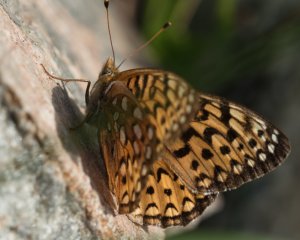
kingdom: Animalia
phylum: Arthropoda
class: Insecta
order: Lepidoptera
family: Nymphalidae
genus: Speyeria
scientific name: Speyeria atlantis
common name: Atlantis Fritillary
